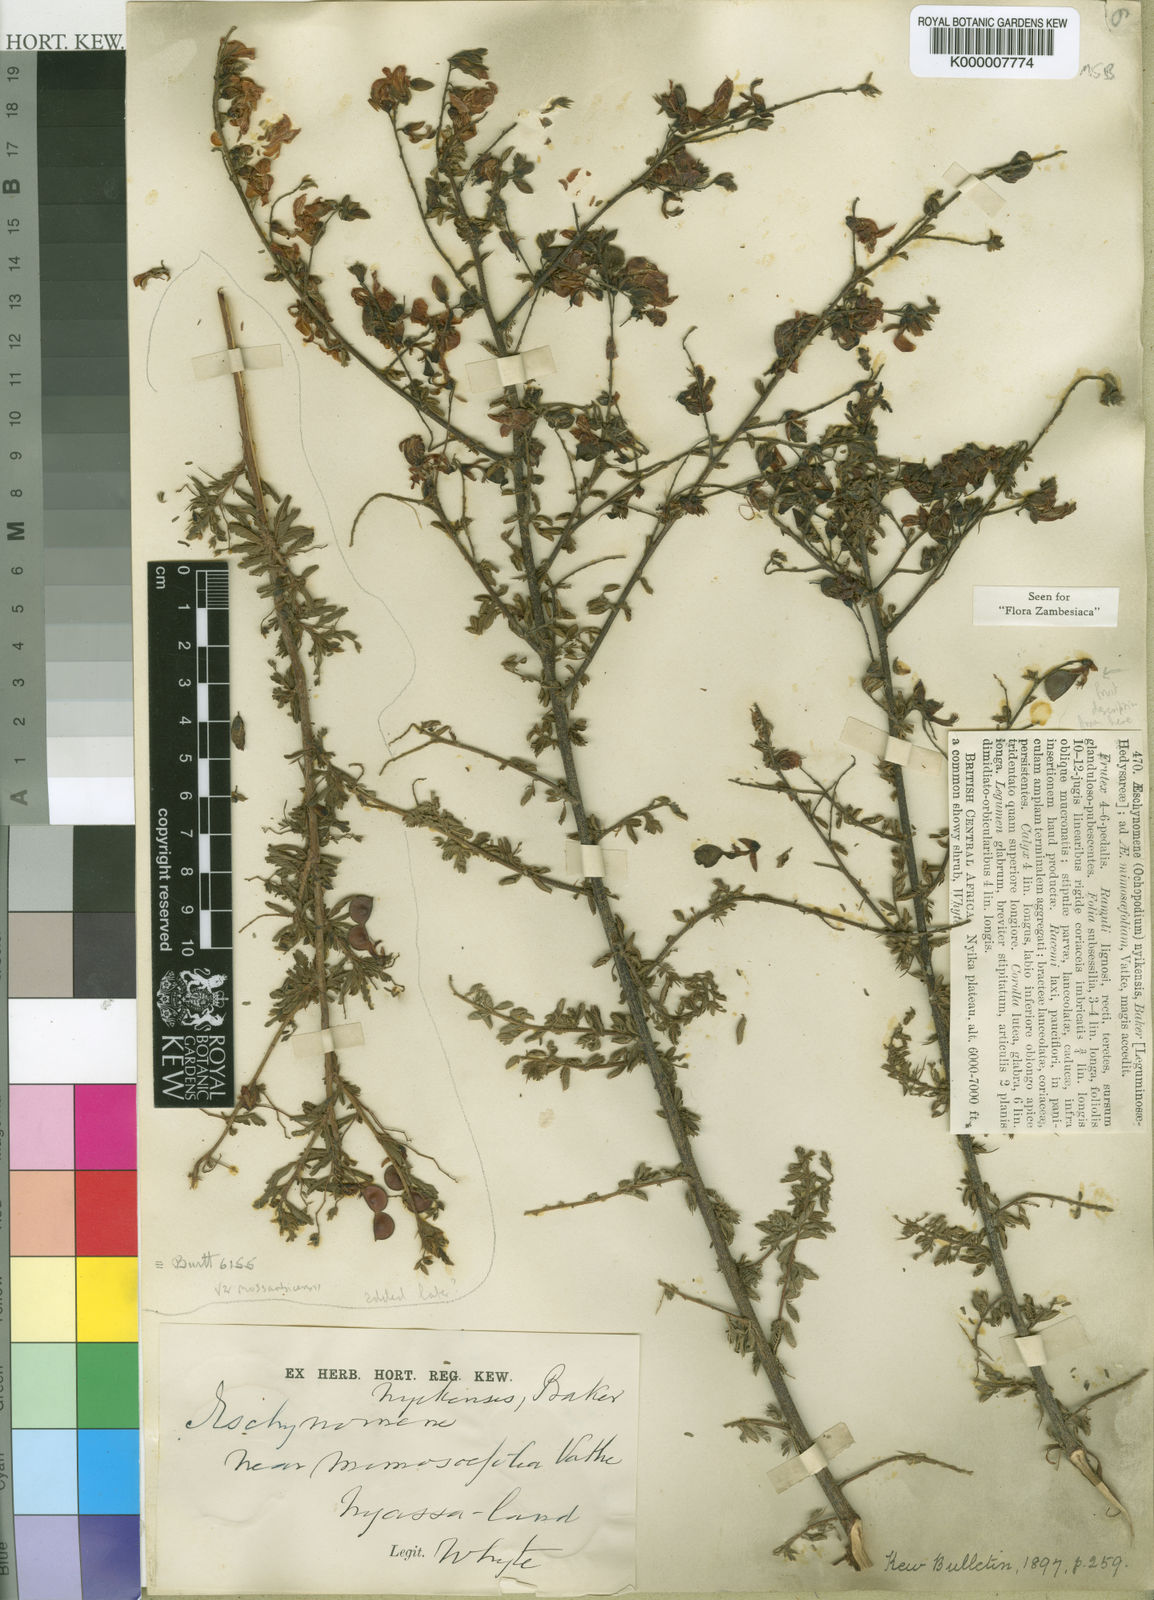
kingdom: Plantae
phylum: Tracheophyta
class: Magnoliopsida
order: Fabales
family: Fabaceae
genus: Aeschynomene
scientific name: Aeschynomene nyikensis
